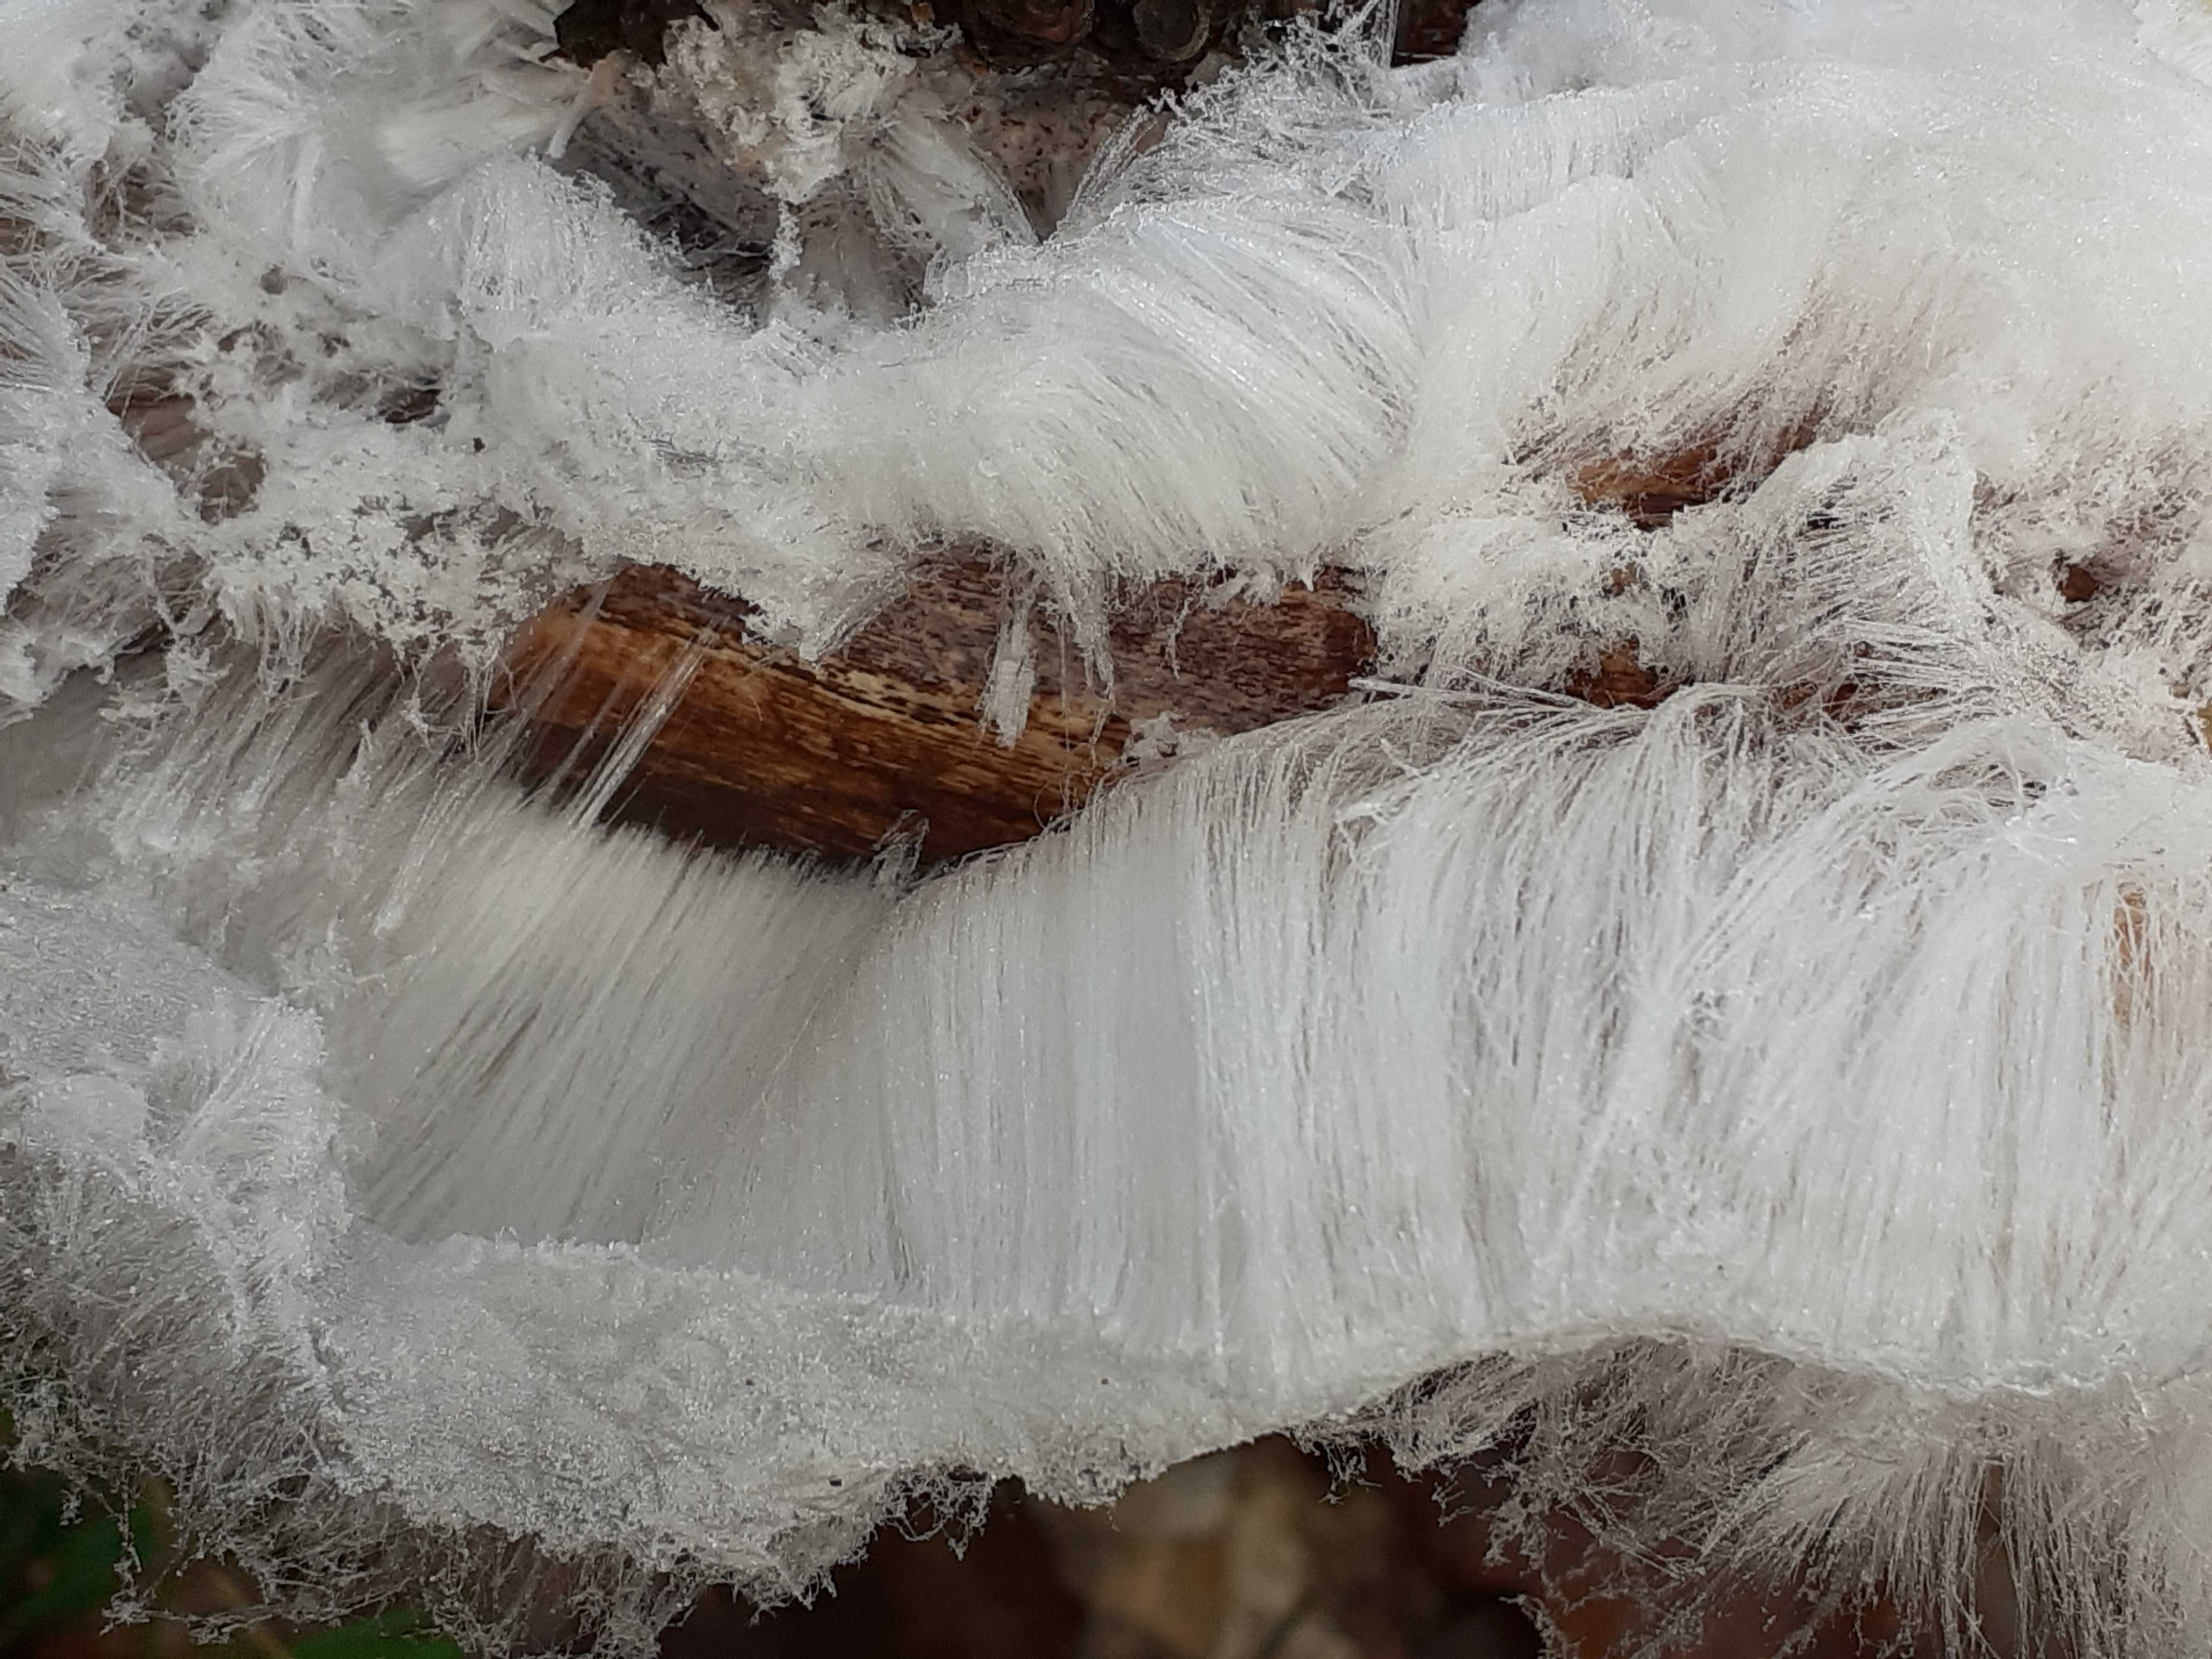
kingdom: Fungi
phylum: Basidiomycota
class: Tremellomycetes
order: Tremellales
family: Exidiaceae
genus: Exidiopsis
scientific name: Exidiopsis effusa
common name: smuk bævrehinde
